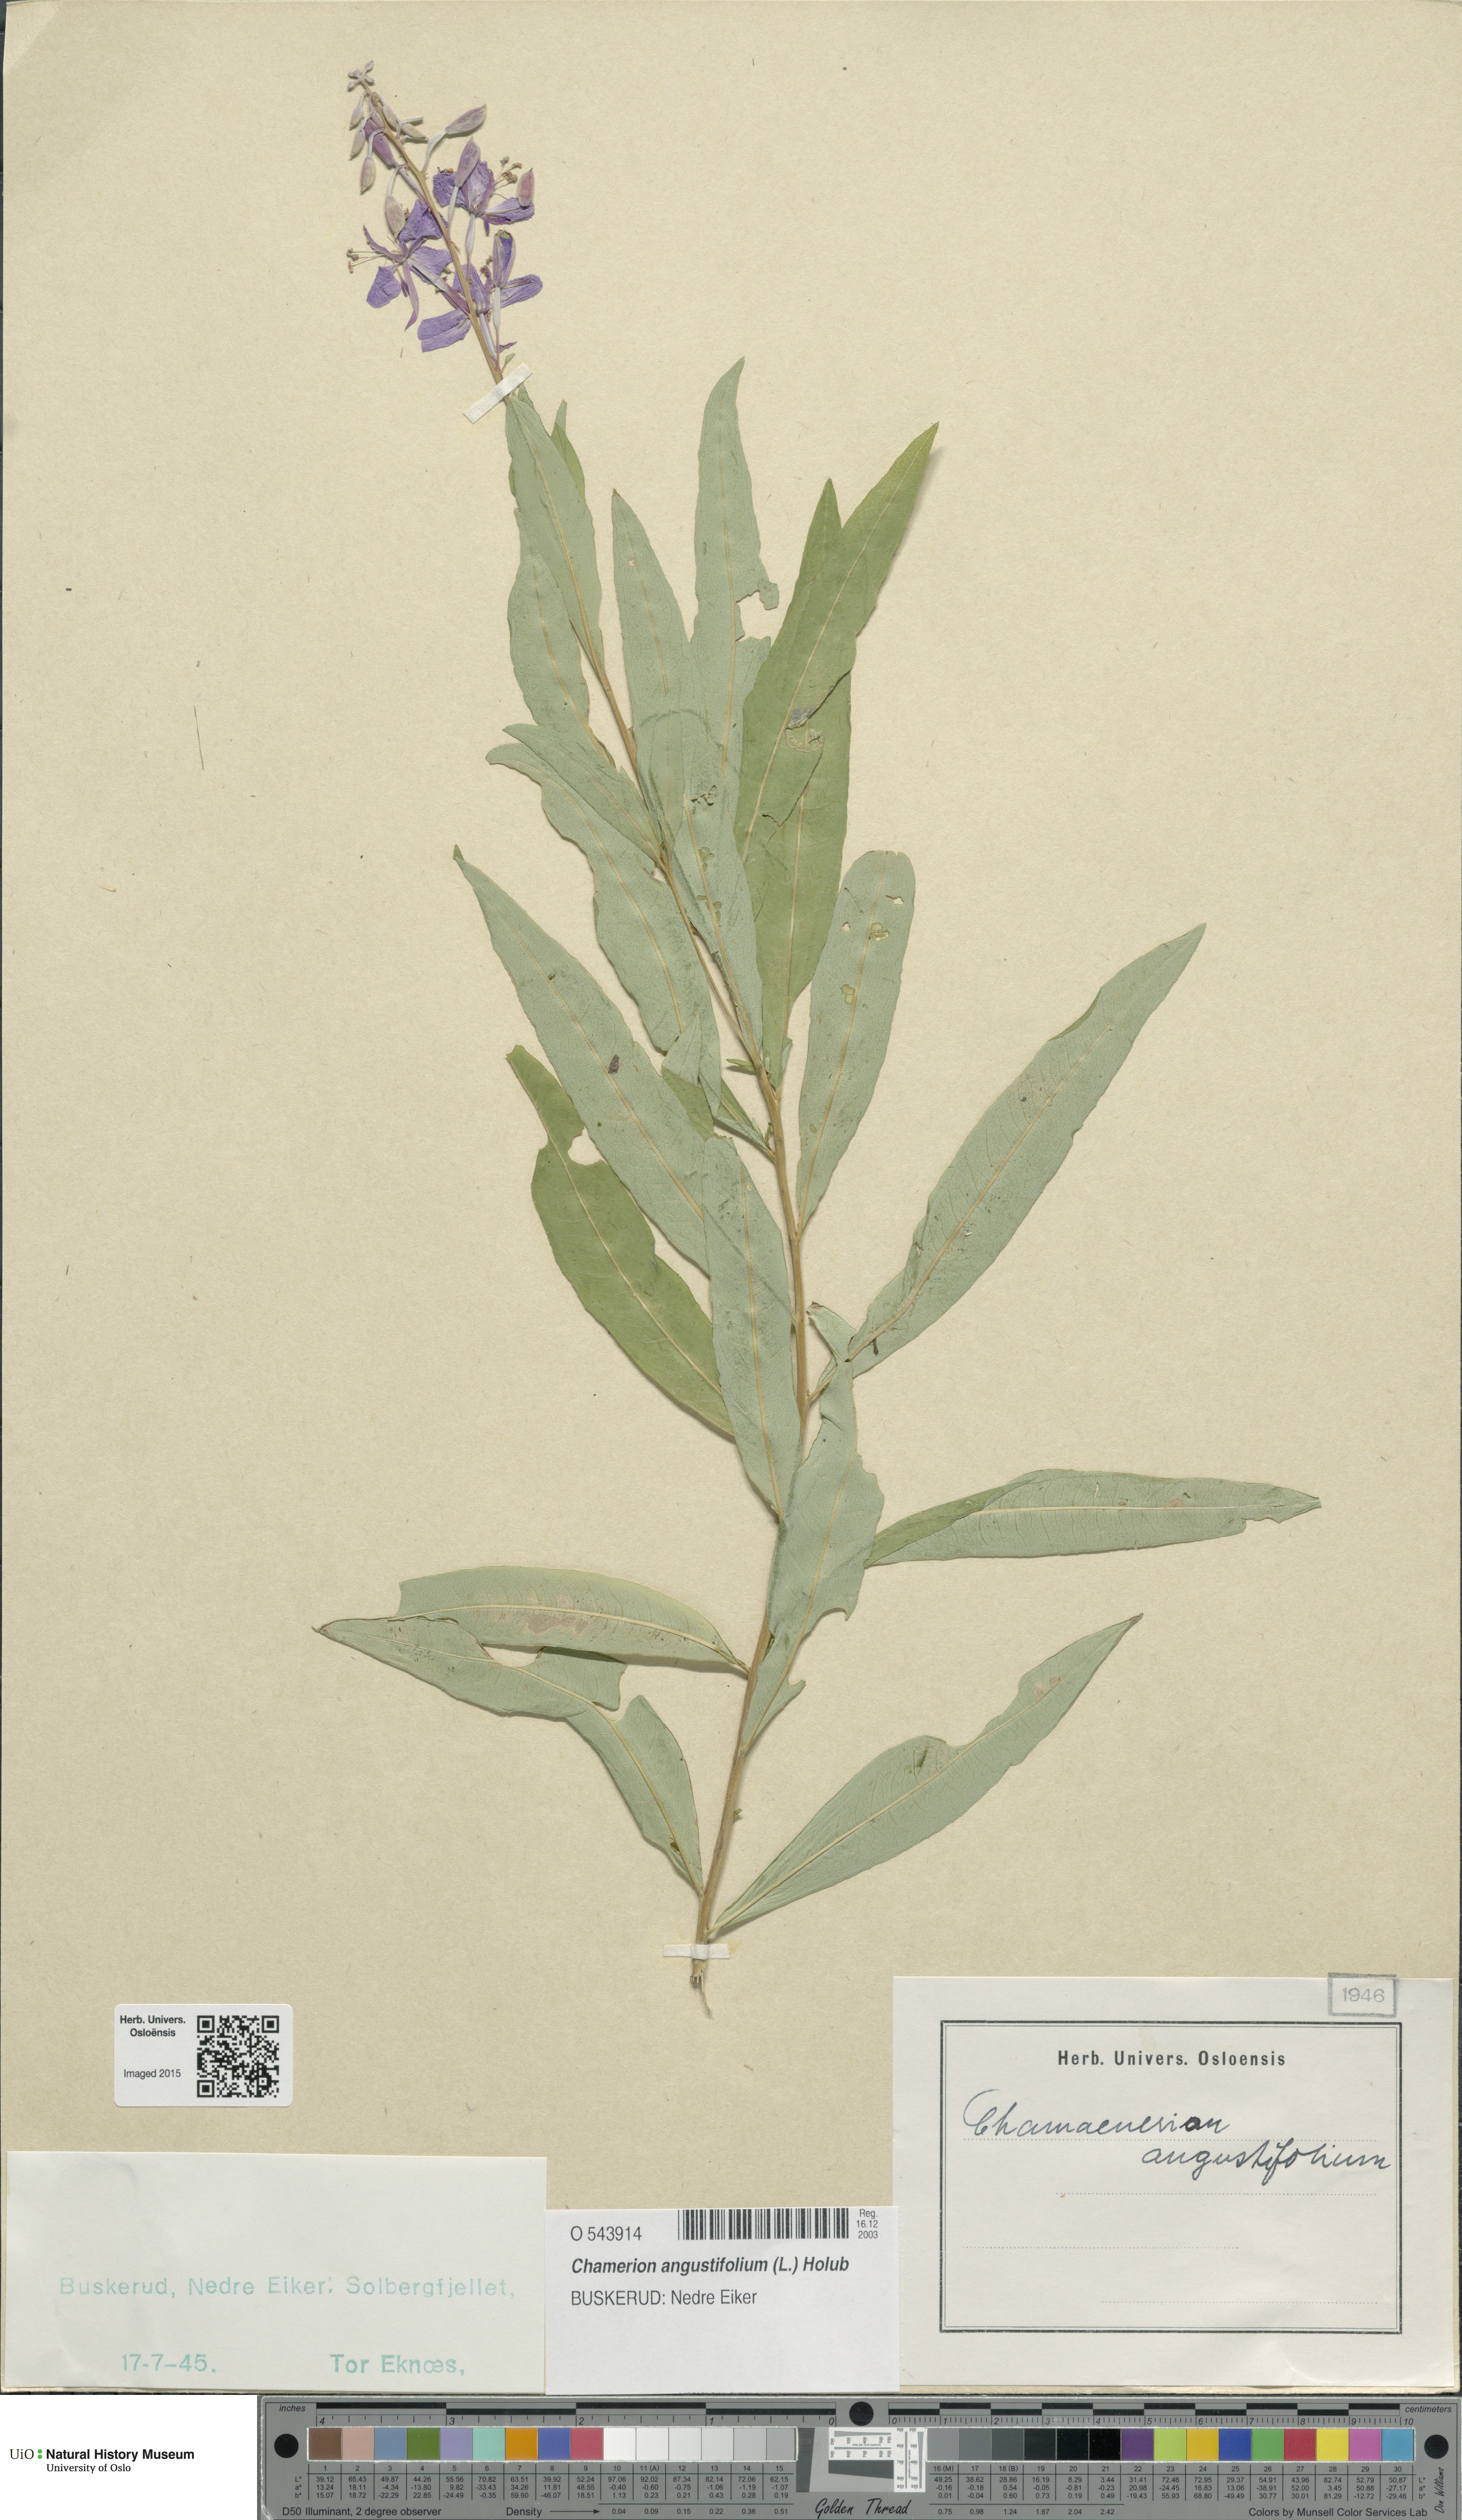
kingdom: Plantae
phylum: Tracheophyta
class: Magnoliopsida
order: Myrtales
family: Onagraceae
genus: Chamaenerion
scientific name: Chamaenerion angustifolium
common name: Fireweed
